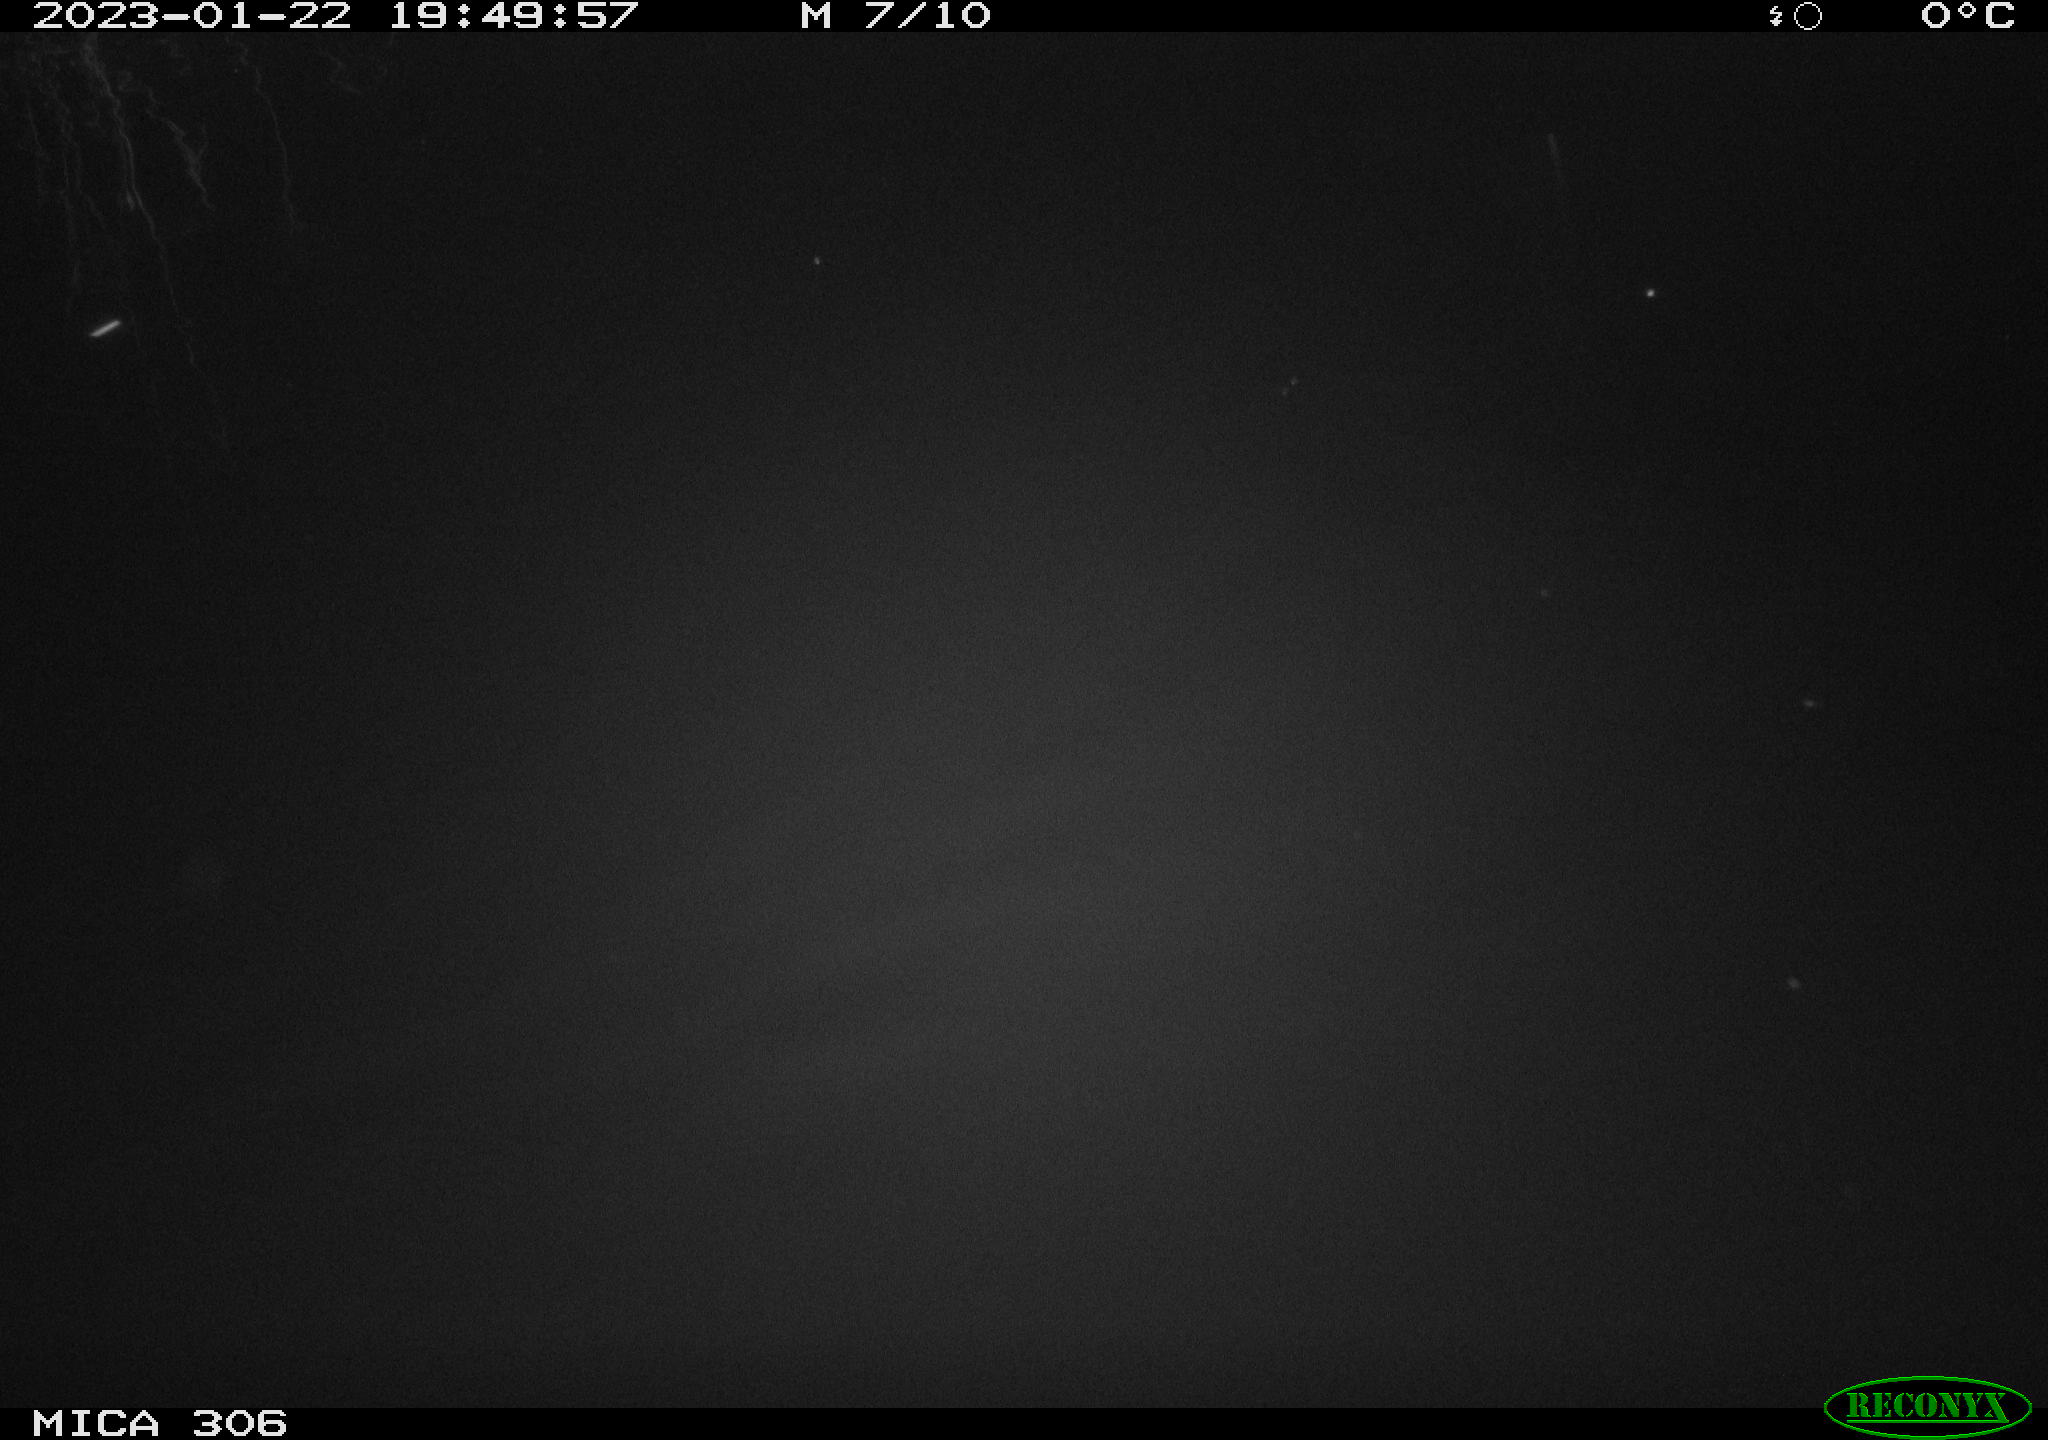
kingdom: Animalia
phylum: Chordata
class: Mammalia
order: Rodentia
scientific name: Rodentia
